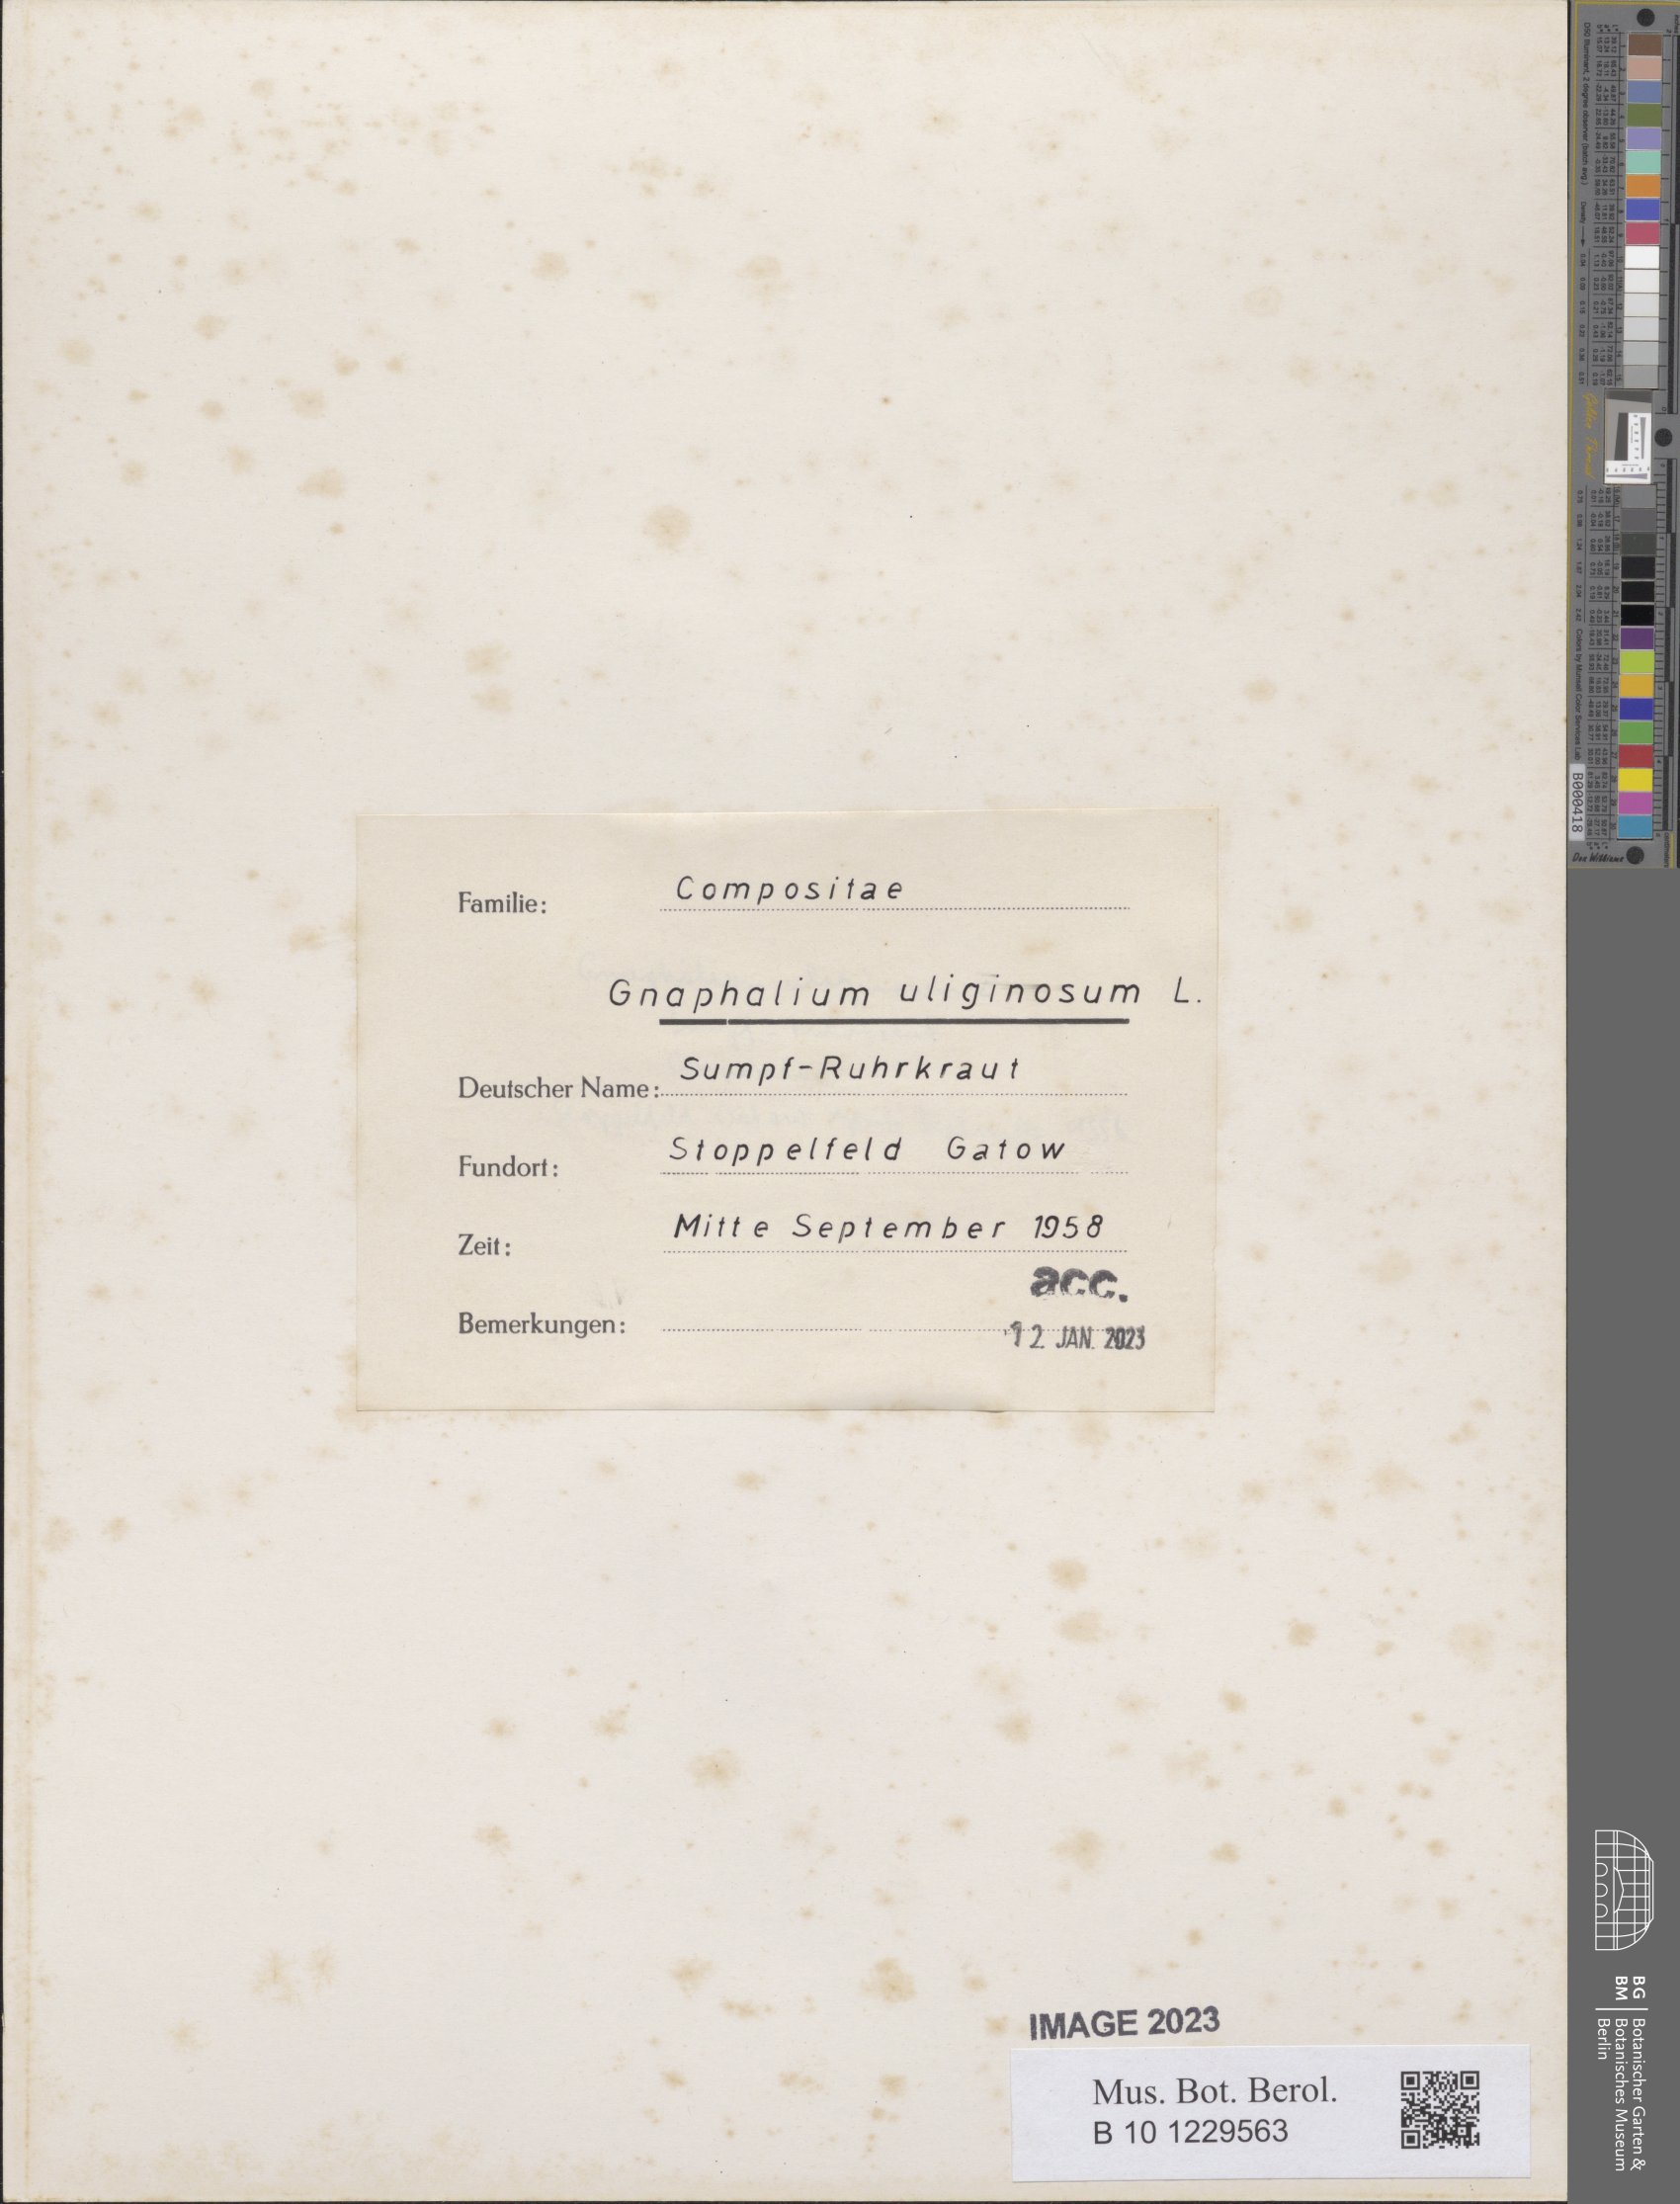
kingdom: Plantae
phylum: Tracheophyta
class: Magnoliopsida
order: Asterales
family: Asteraceae
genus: Gnaphalium
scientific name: Gnaphalium uliginosum
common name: Marsh cudweed
